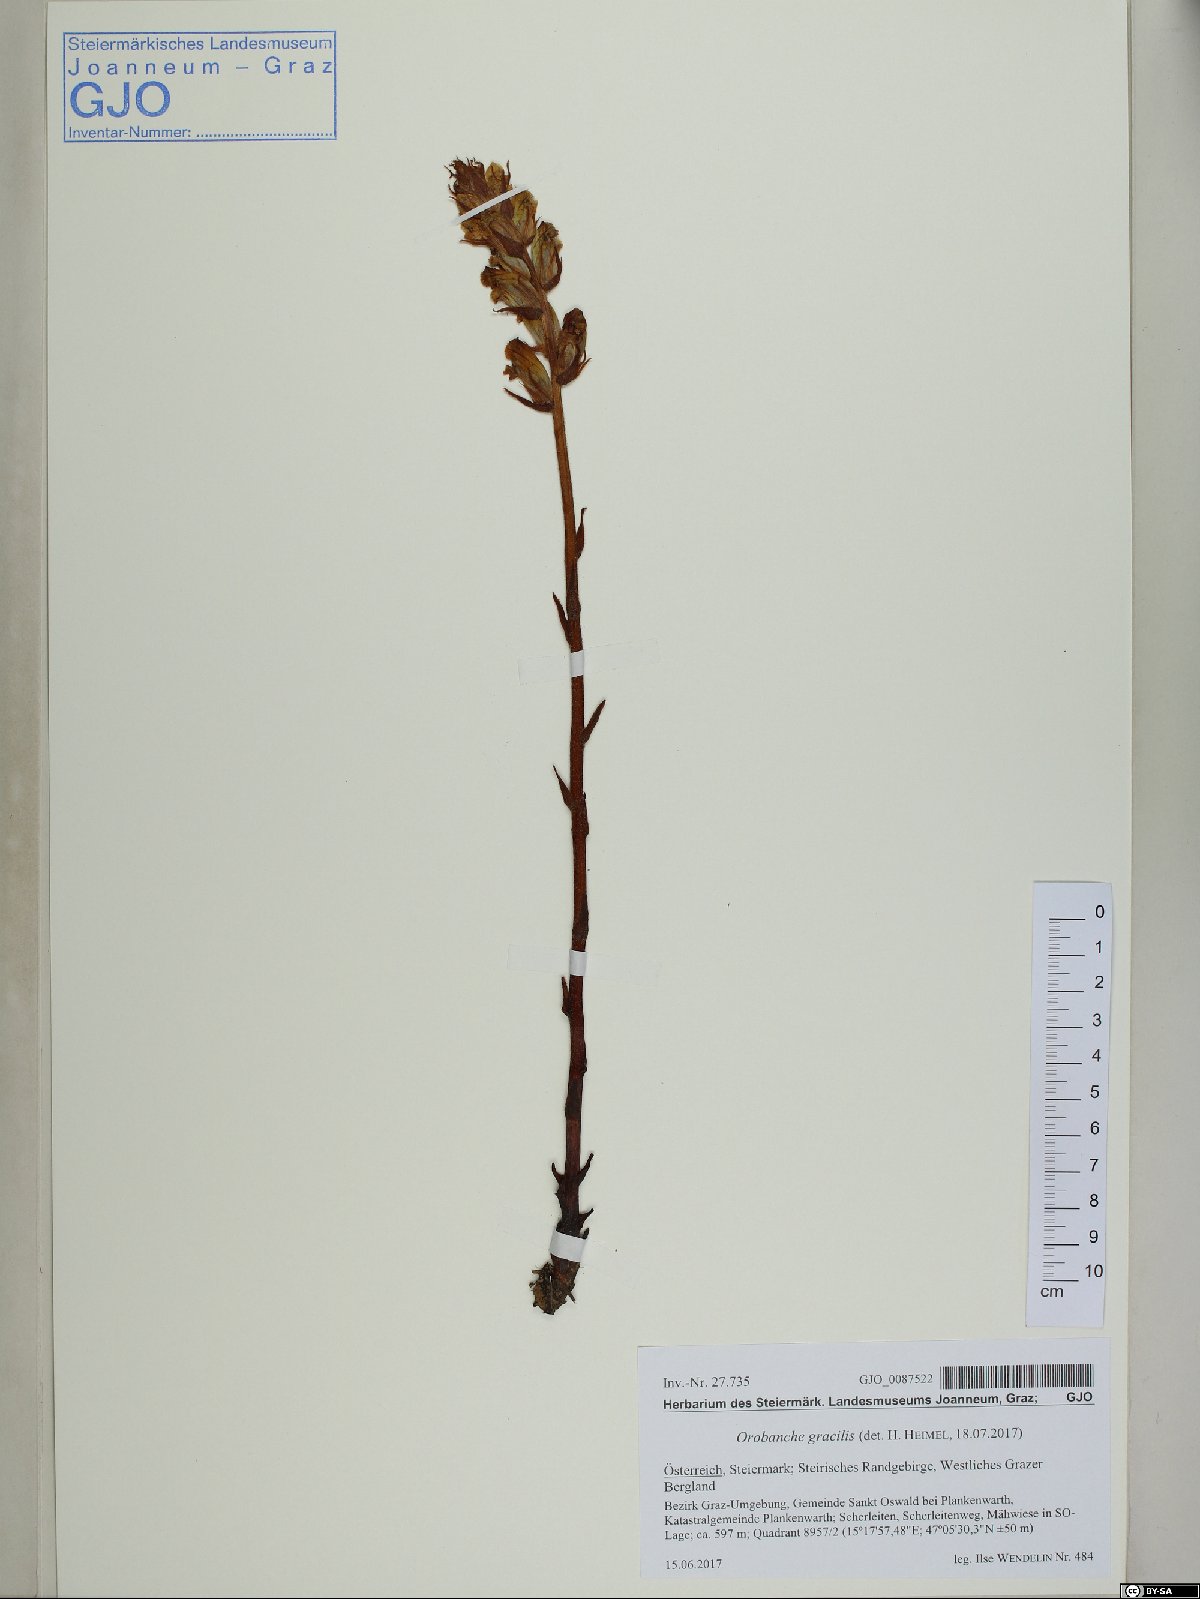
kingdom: Plantae
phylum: Tracheophyta
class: Magnoliopsida
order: Lamiales
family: Orobanchaceae
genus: Orobanche
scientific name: Orobanche gracilis
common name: Slender broomrape
